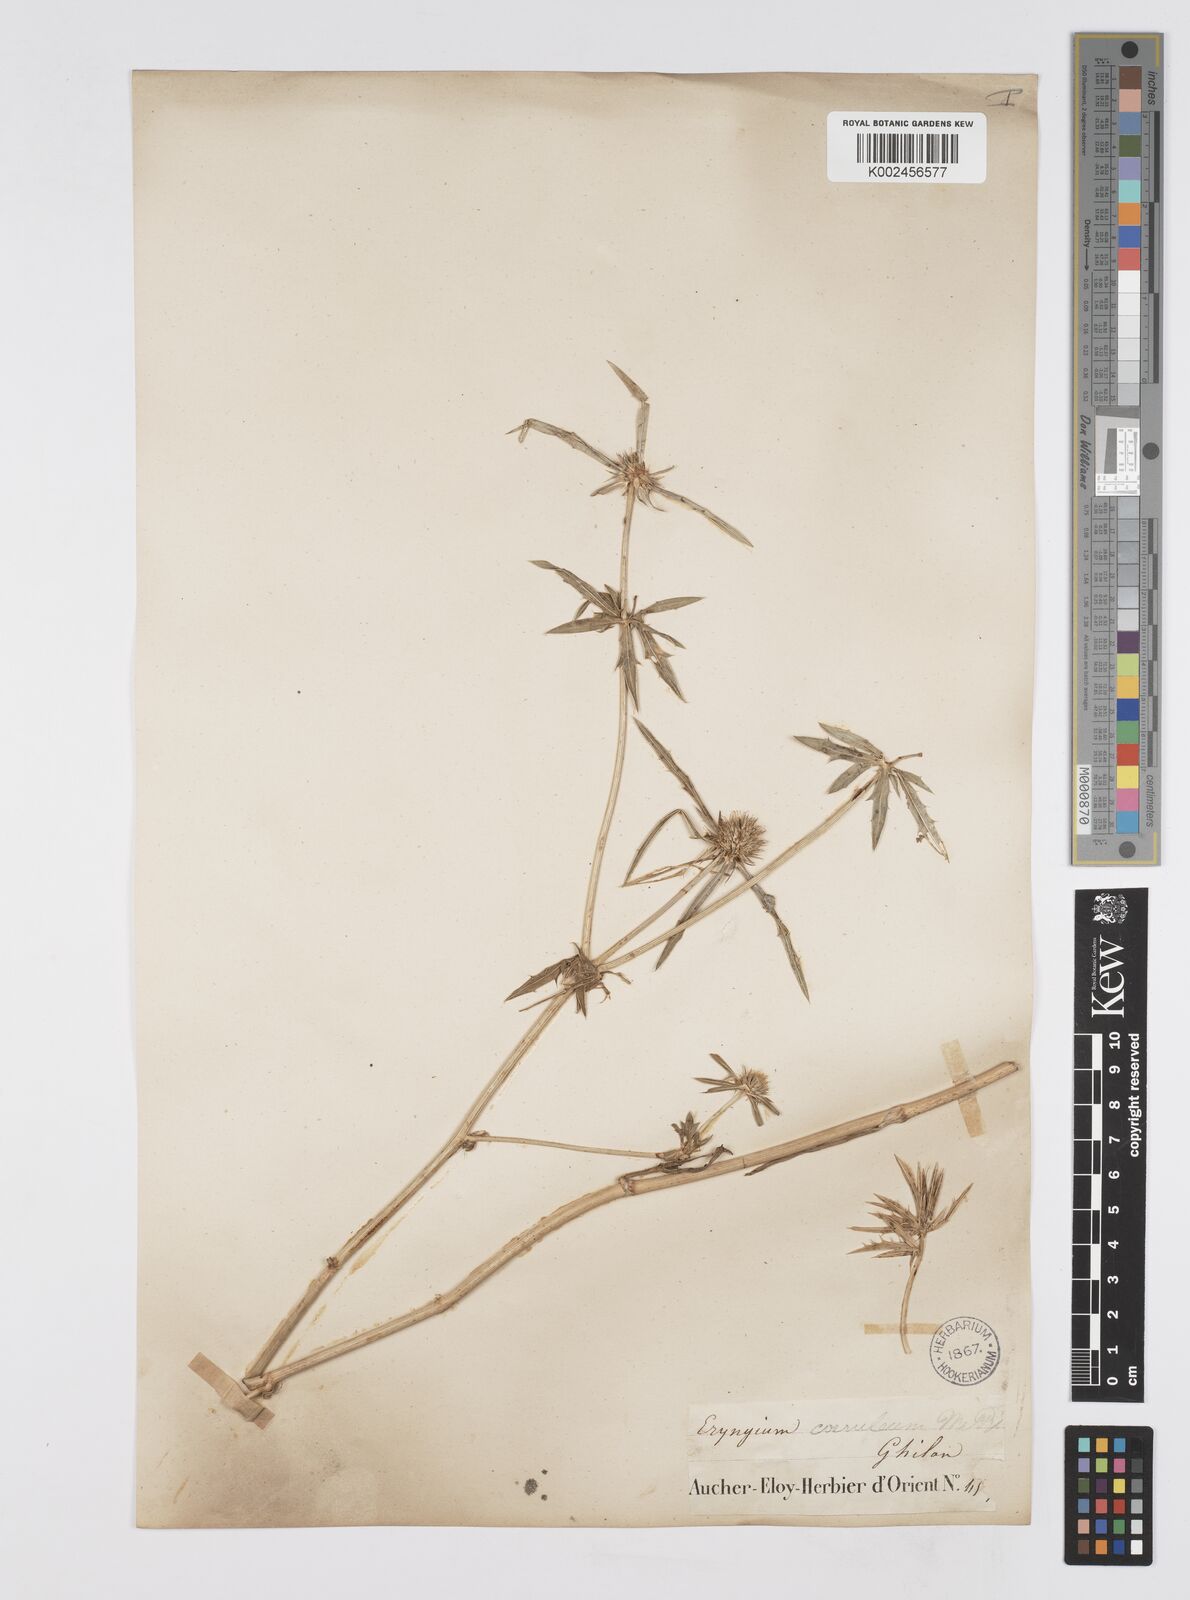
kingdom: Plantae
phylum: Tracheophyta
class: Magnoliopsida
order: Apiales
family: Apiaceae
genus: Eryngium
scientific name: Eryngium caeruleum
